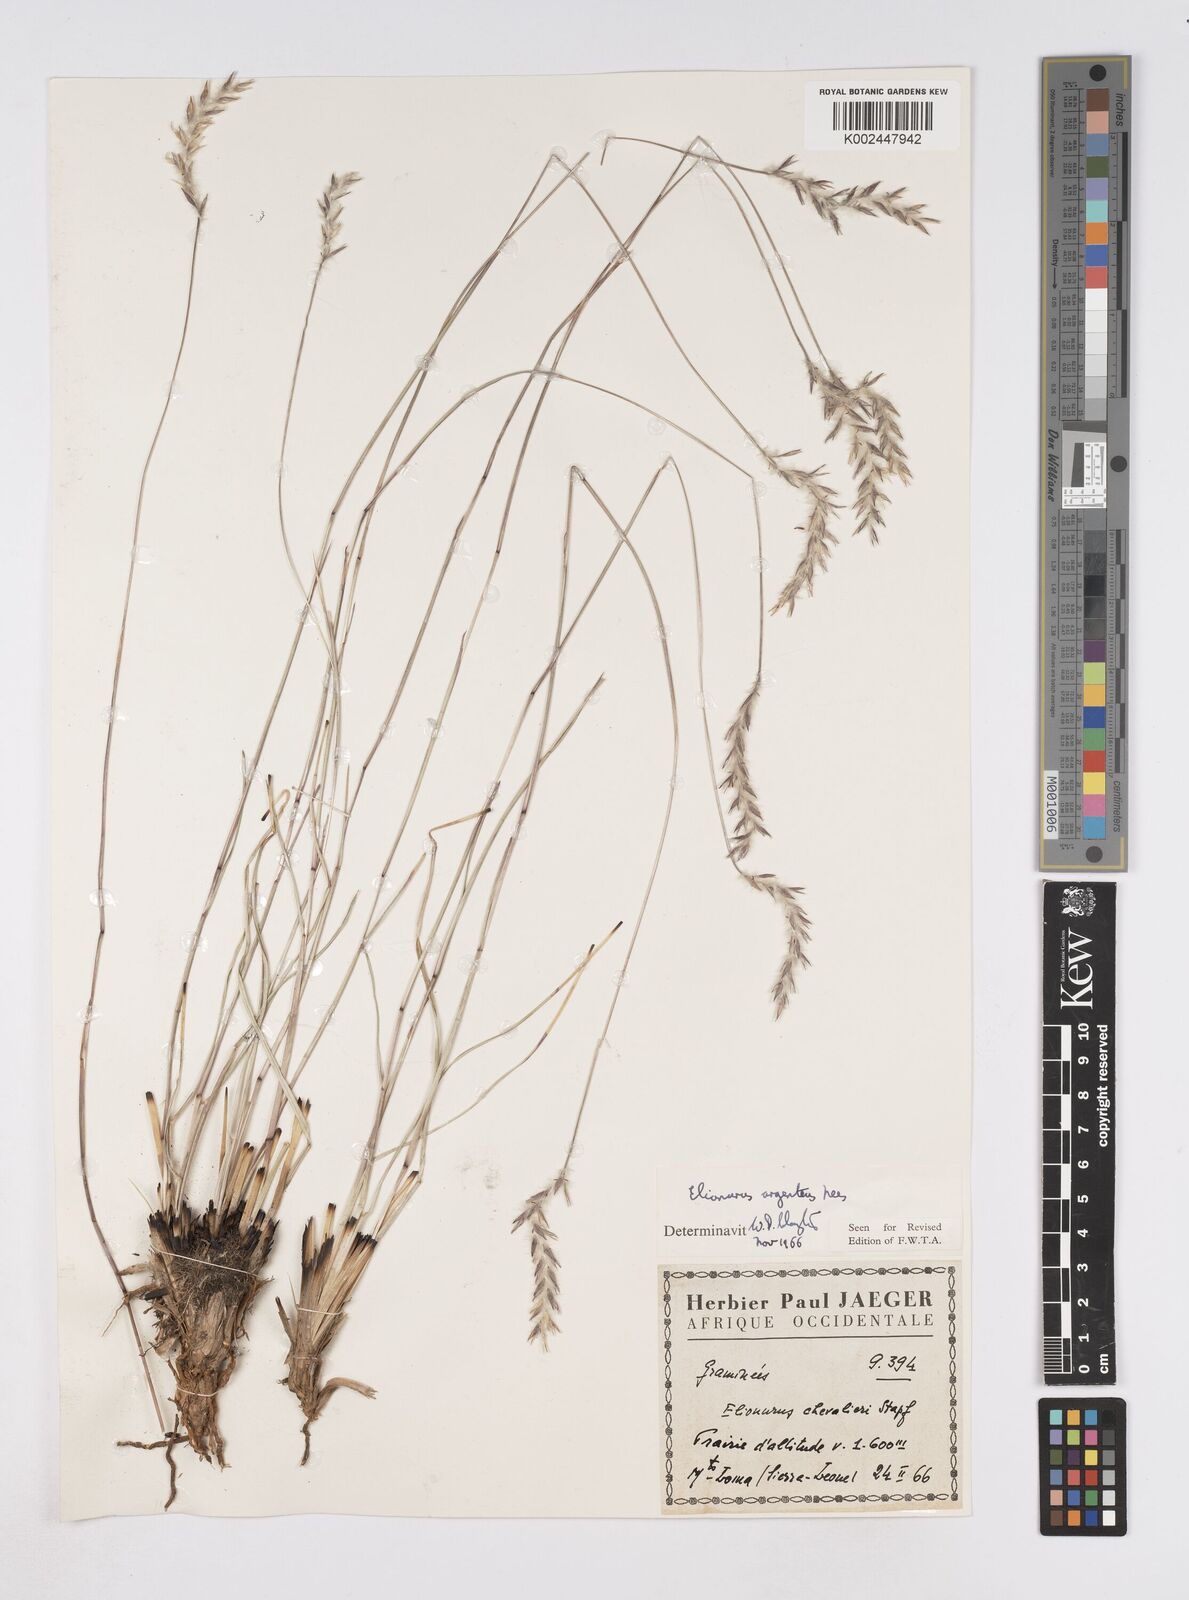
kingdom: Plantae
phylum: Tracheophyta
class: Liliopsida
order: Poales
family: Poaceae
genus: Elionurus
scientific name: Elionurus muticus
